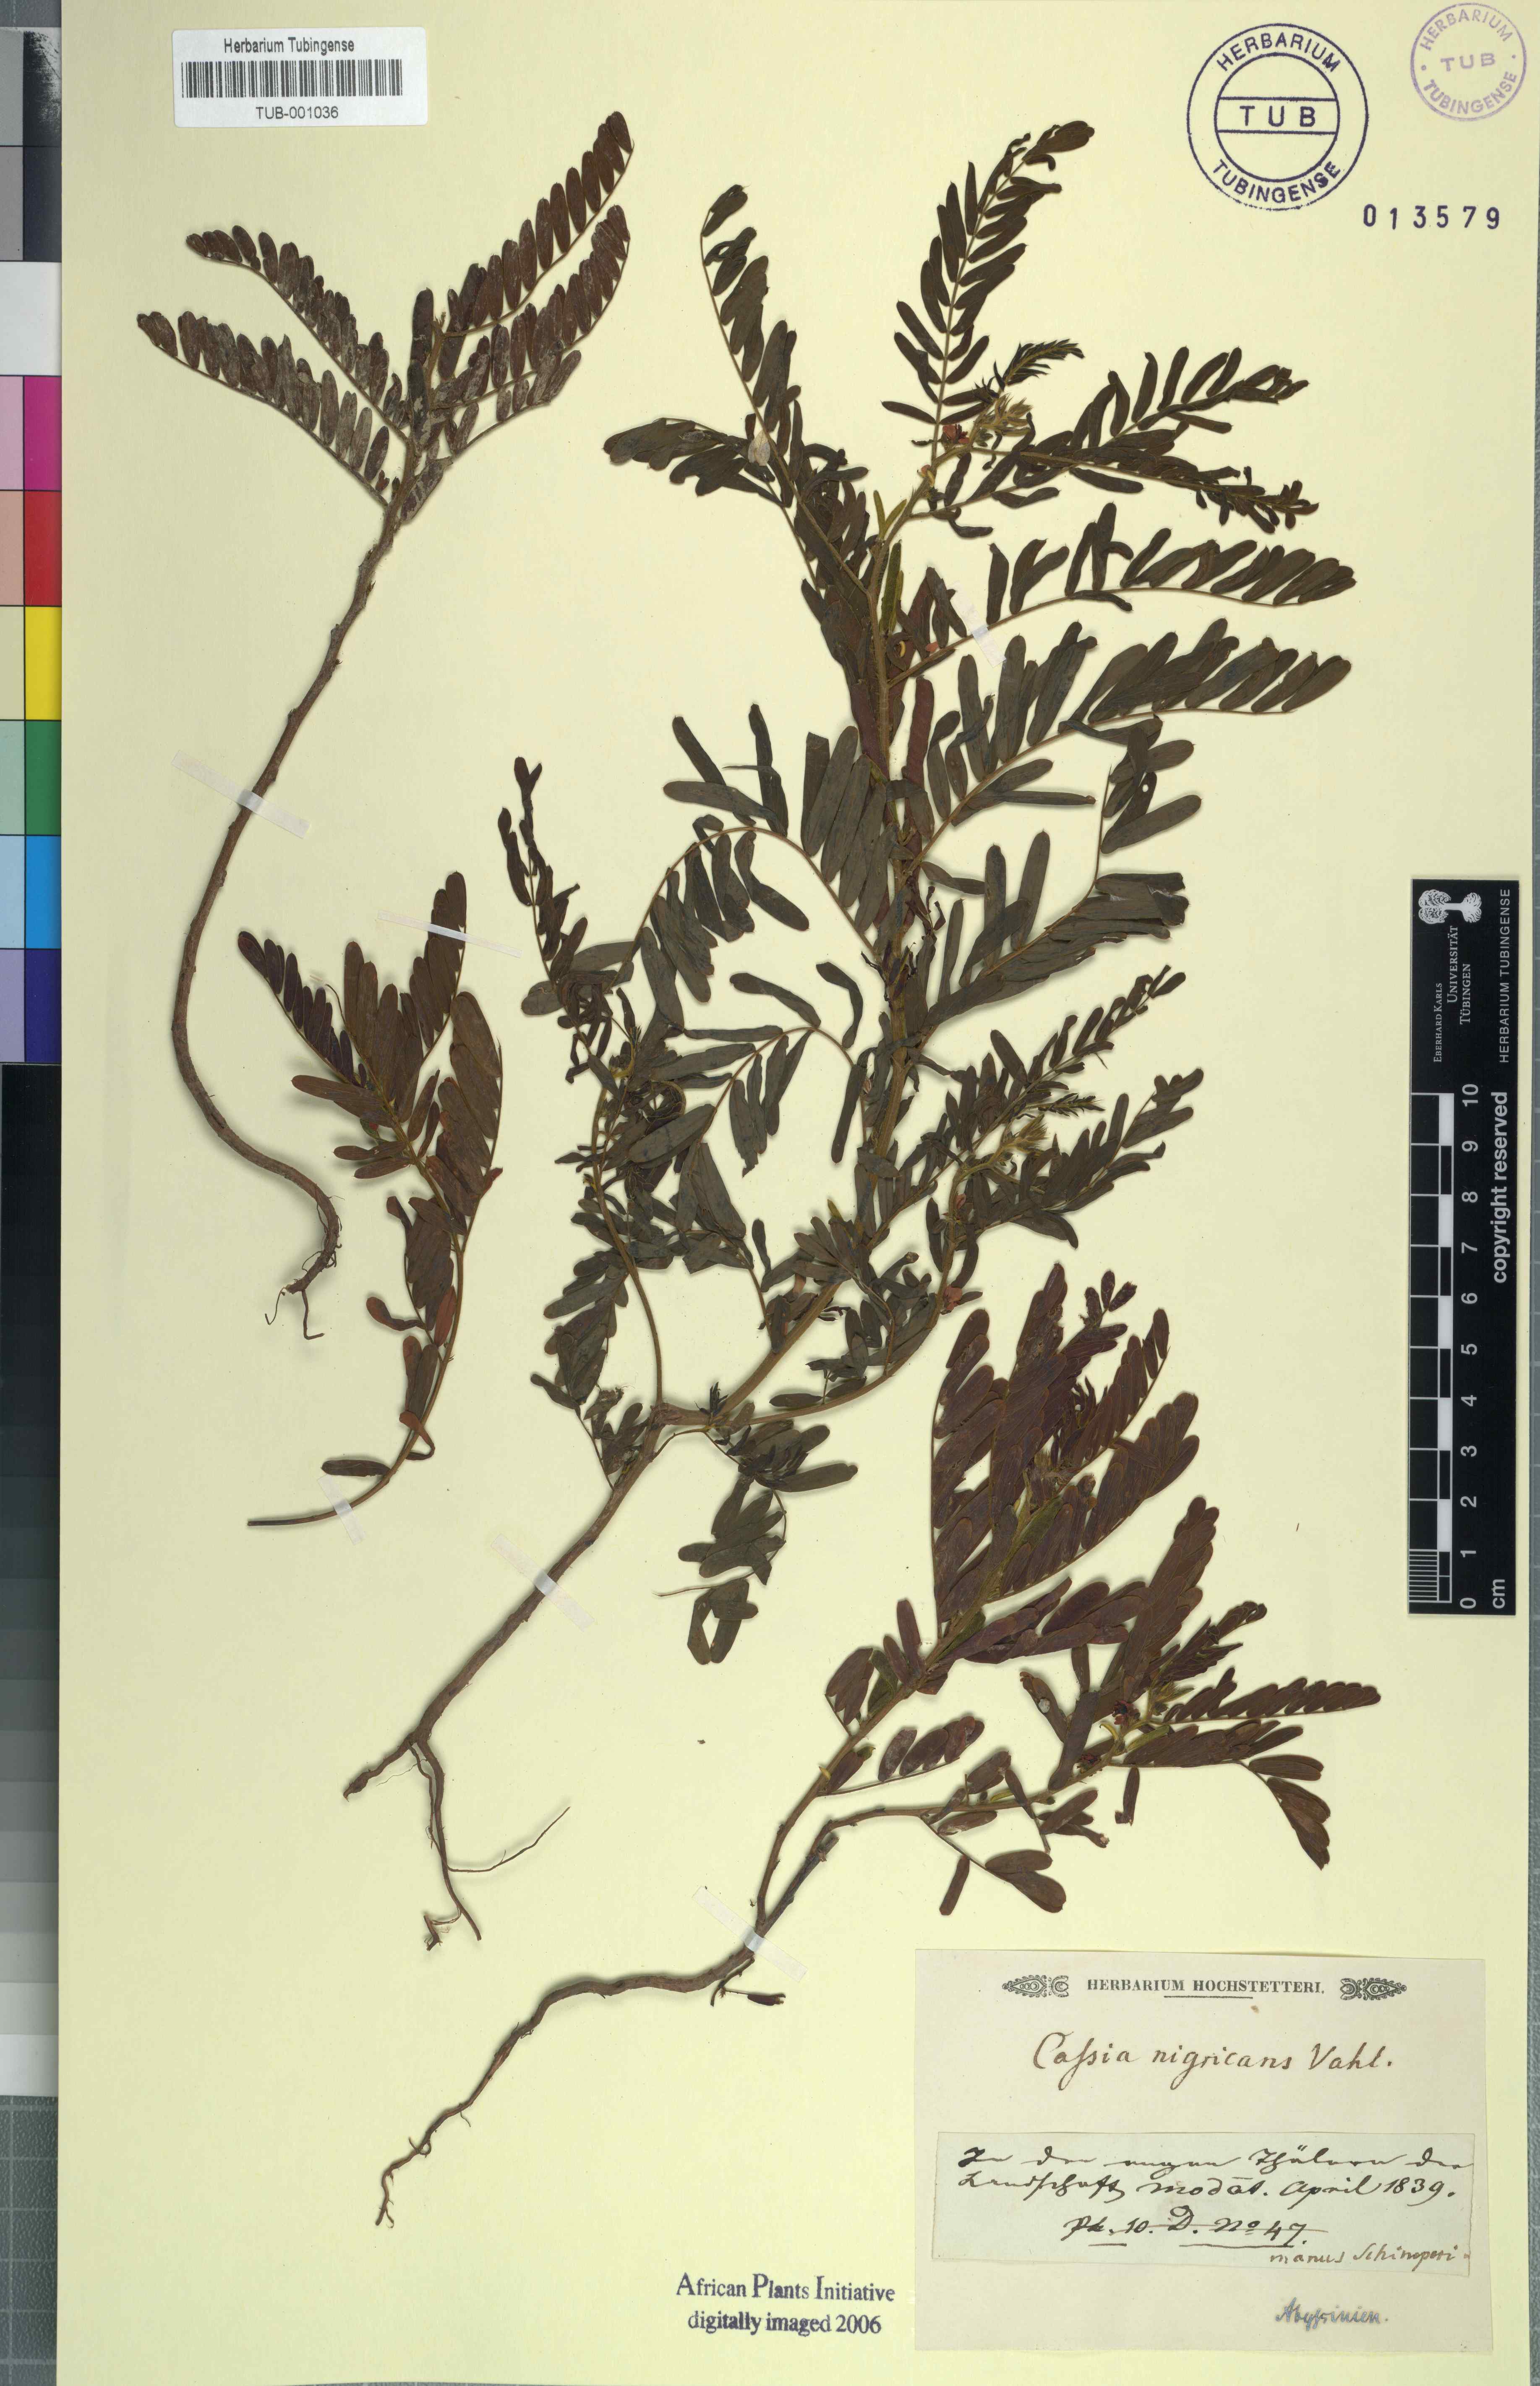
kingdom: Plantae
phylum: Tracheophyta
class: Magnoliopsida
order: Fabales
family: Fabaceae
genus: Chamaecrista
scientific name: Chamaecrista nigricans
